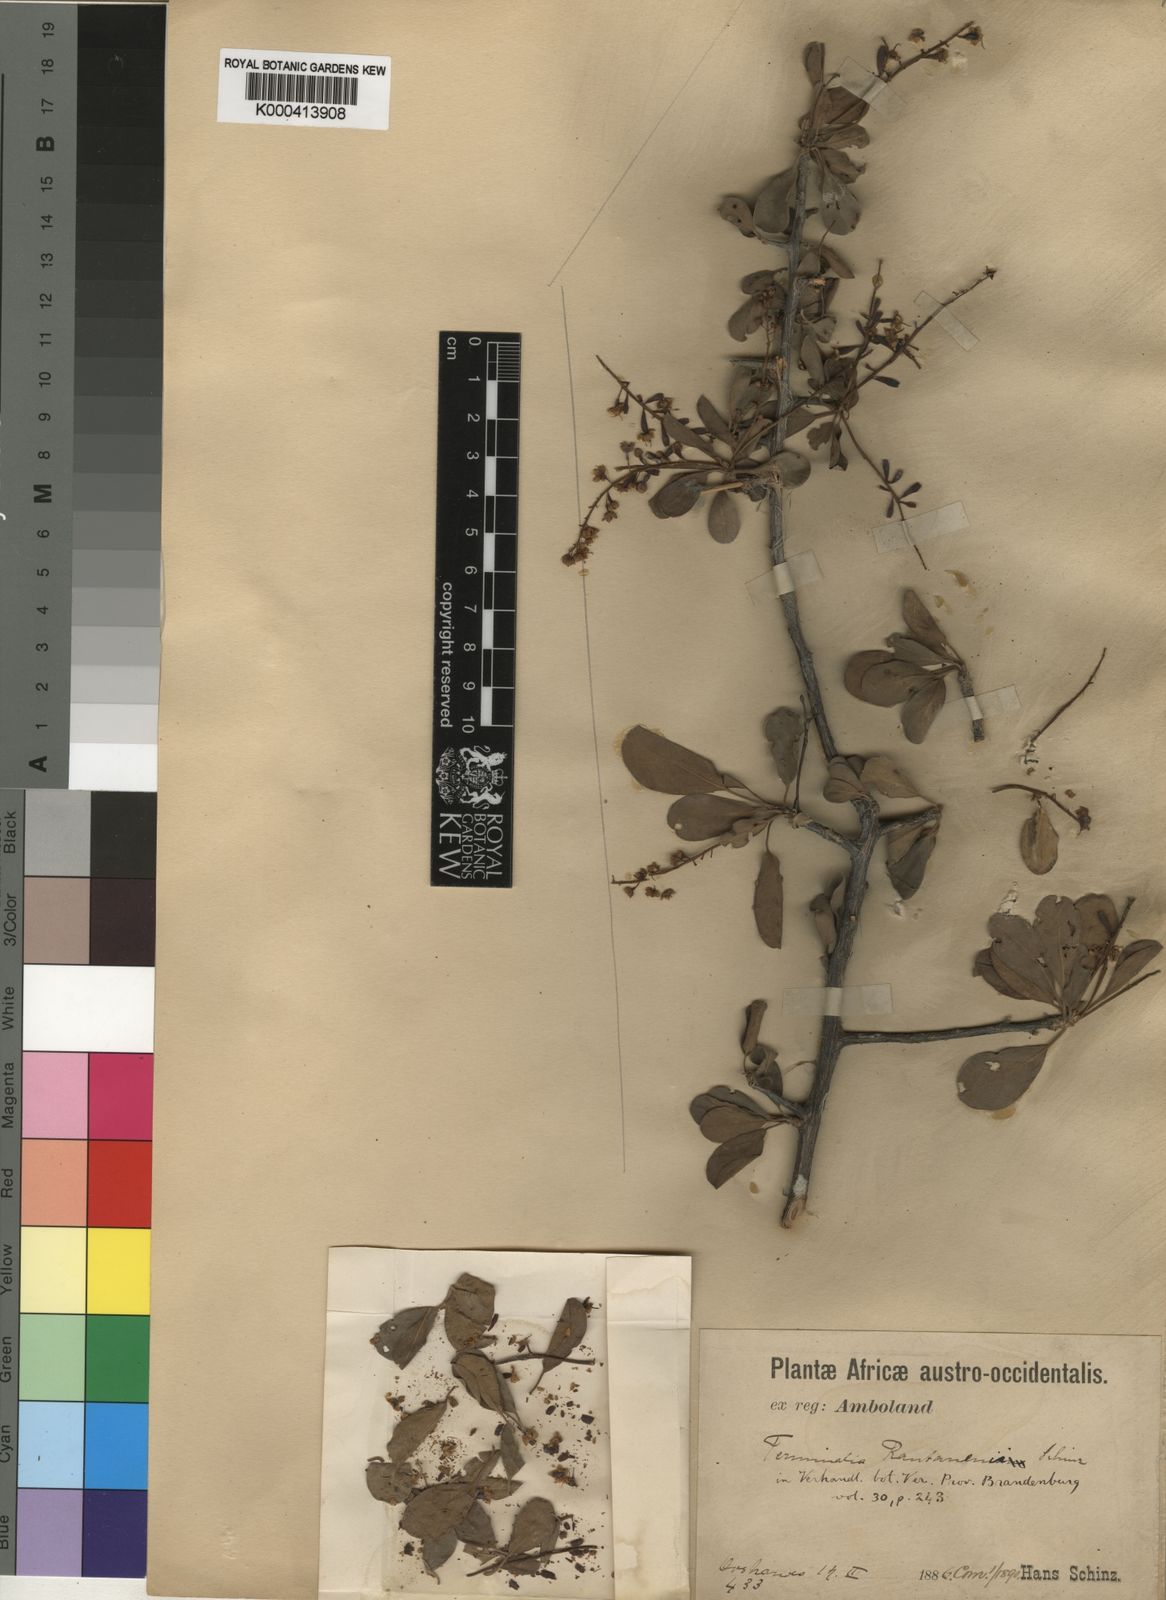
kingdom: Plantae
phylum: Tracheophyta
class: Magnoliopsida
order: Myrtales
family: Combretaceae
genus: Terminalia
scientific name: Terminalia prunioides
